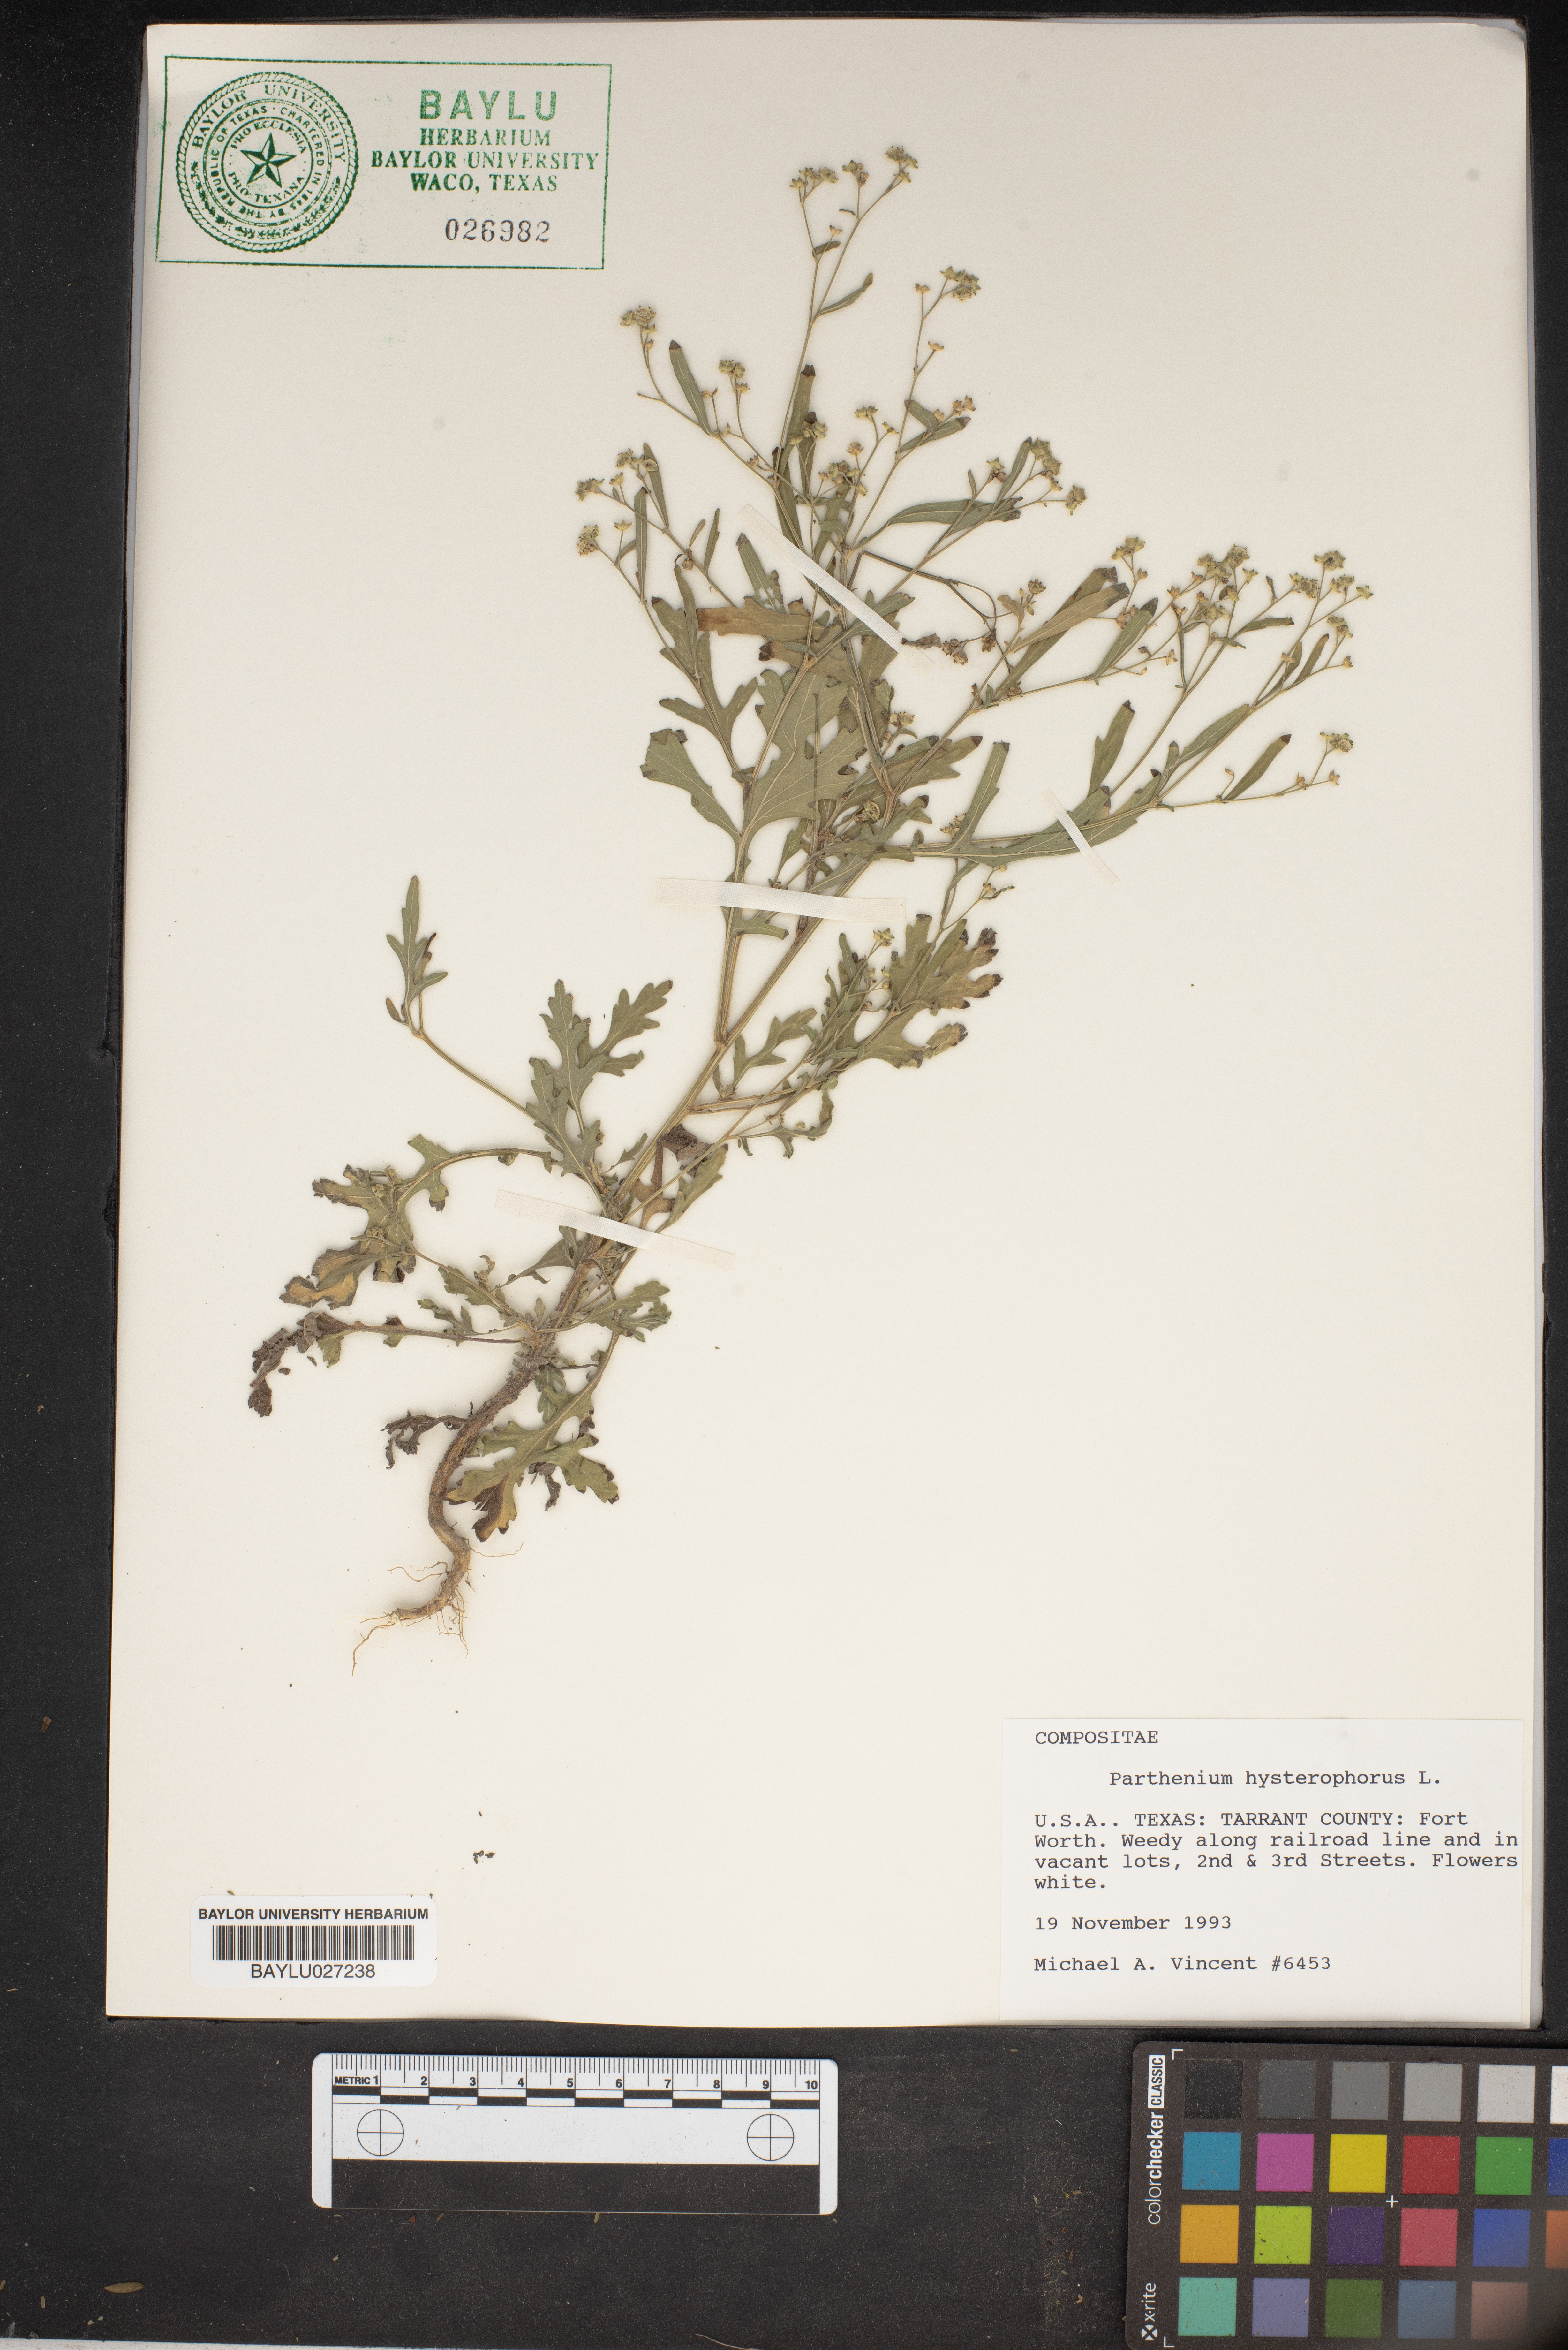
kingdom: Plantae
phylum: Tracheophyta
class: Magnoliopsida
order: Asterales
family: Asteraceae
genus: Parthenium
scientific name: Parthenium hysterophorus
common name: Santa maria feverfew
